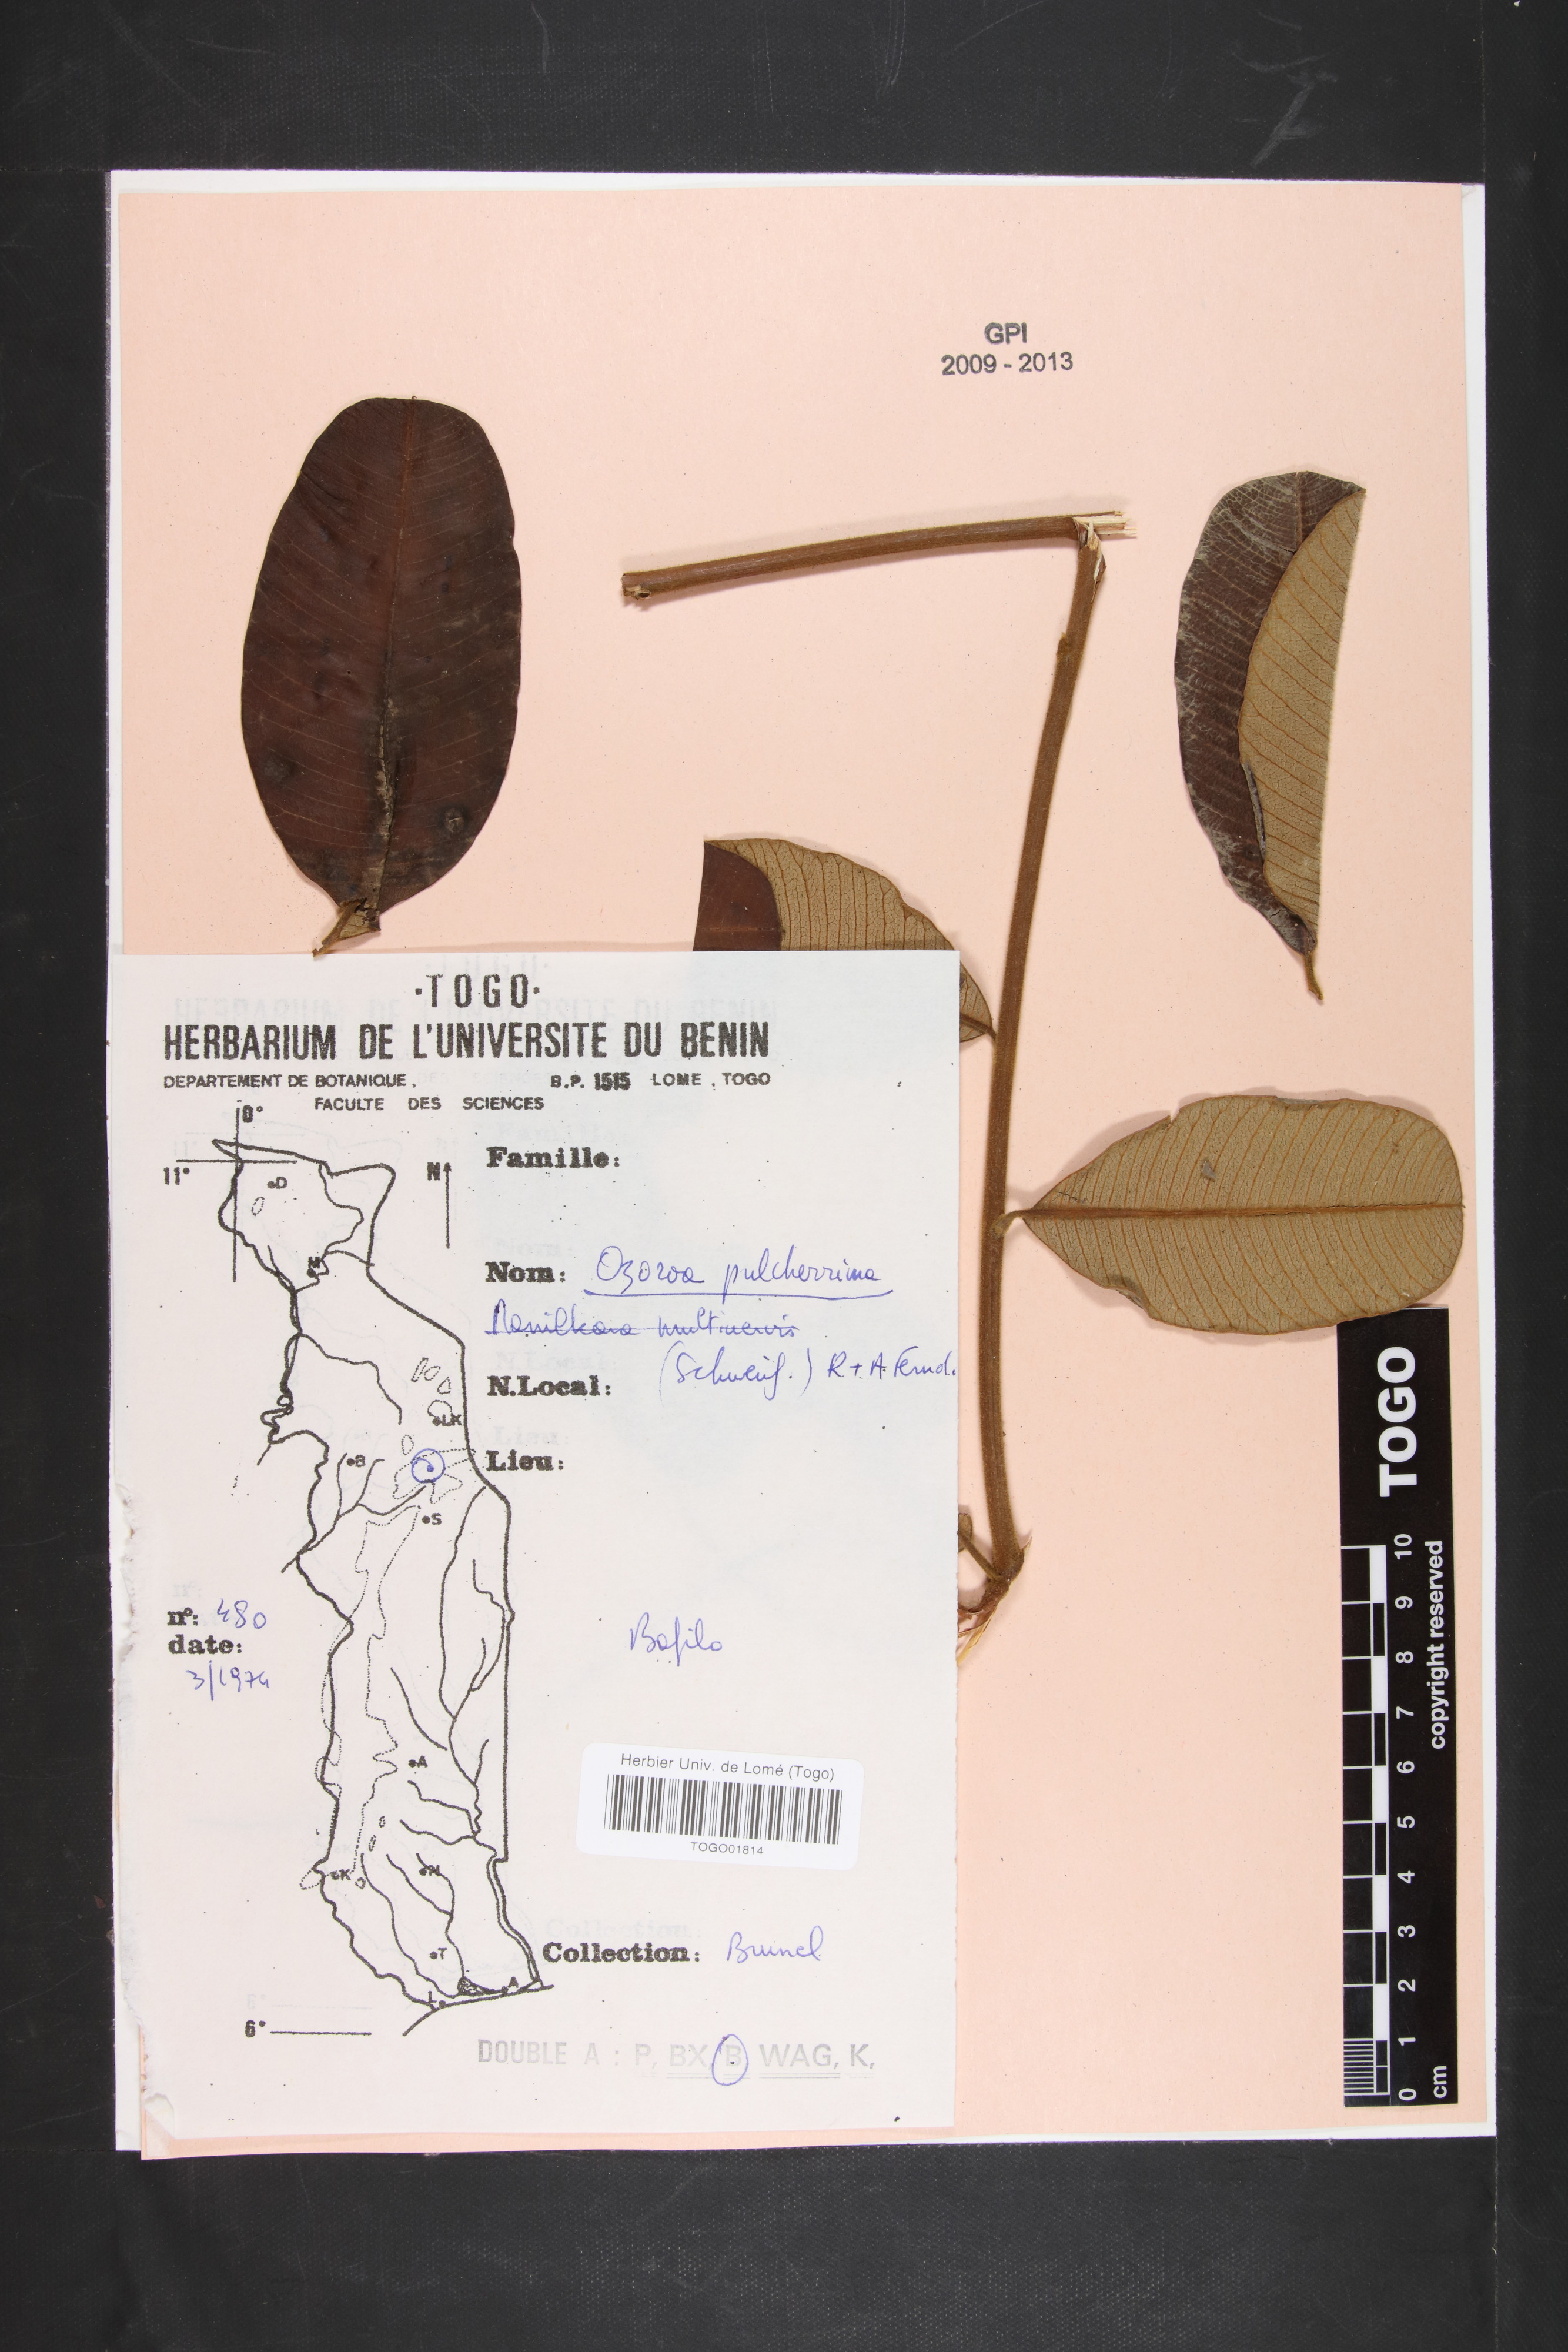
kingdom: Plantae
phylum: Tracheophyta
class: Magnoliopsida
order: Sapindales
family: Anacardiaceae
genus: Ozoroa
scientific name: Ozoroa pulcherrima
